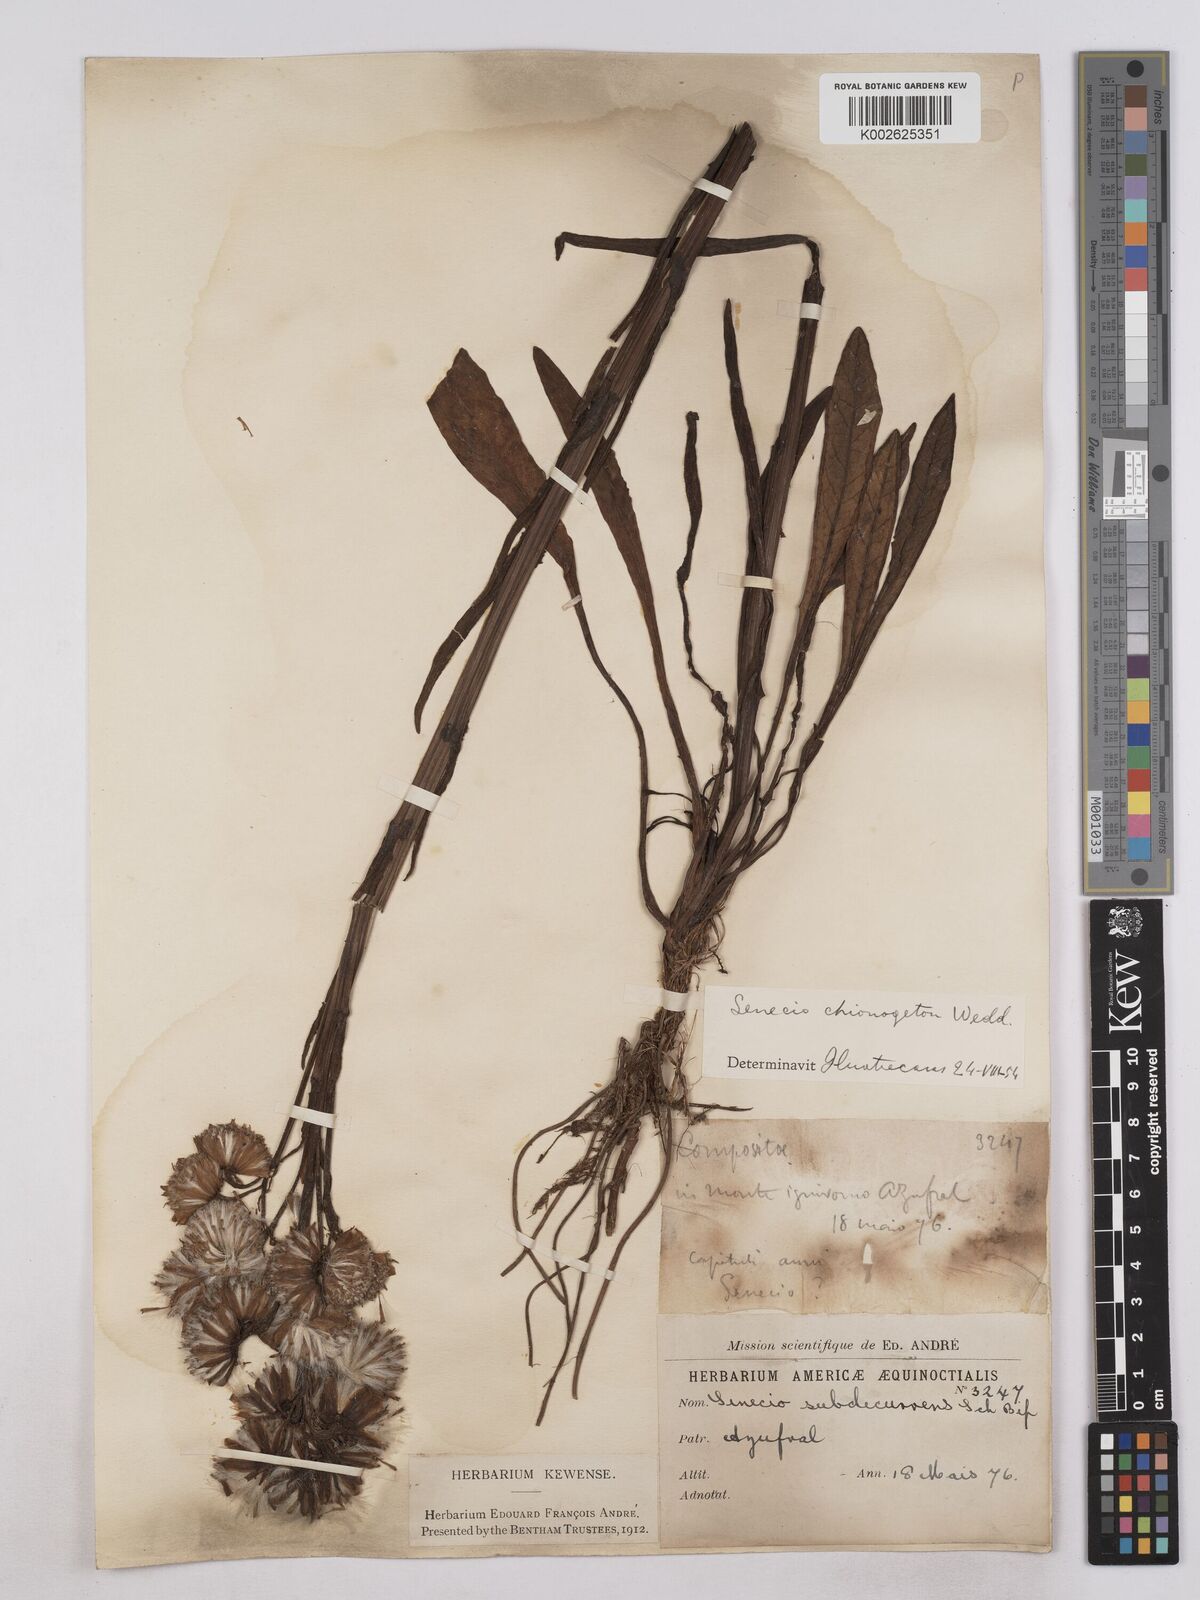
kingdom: Plantae
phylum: Tracheophyta
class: Magnoliopsida
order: Asterales
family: Asteraceae
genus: Senecio
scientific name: Senecio chionogeton
